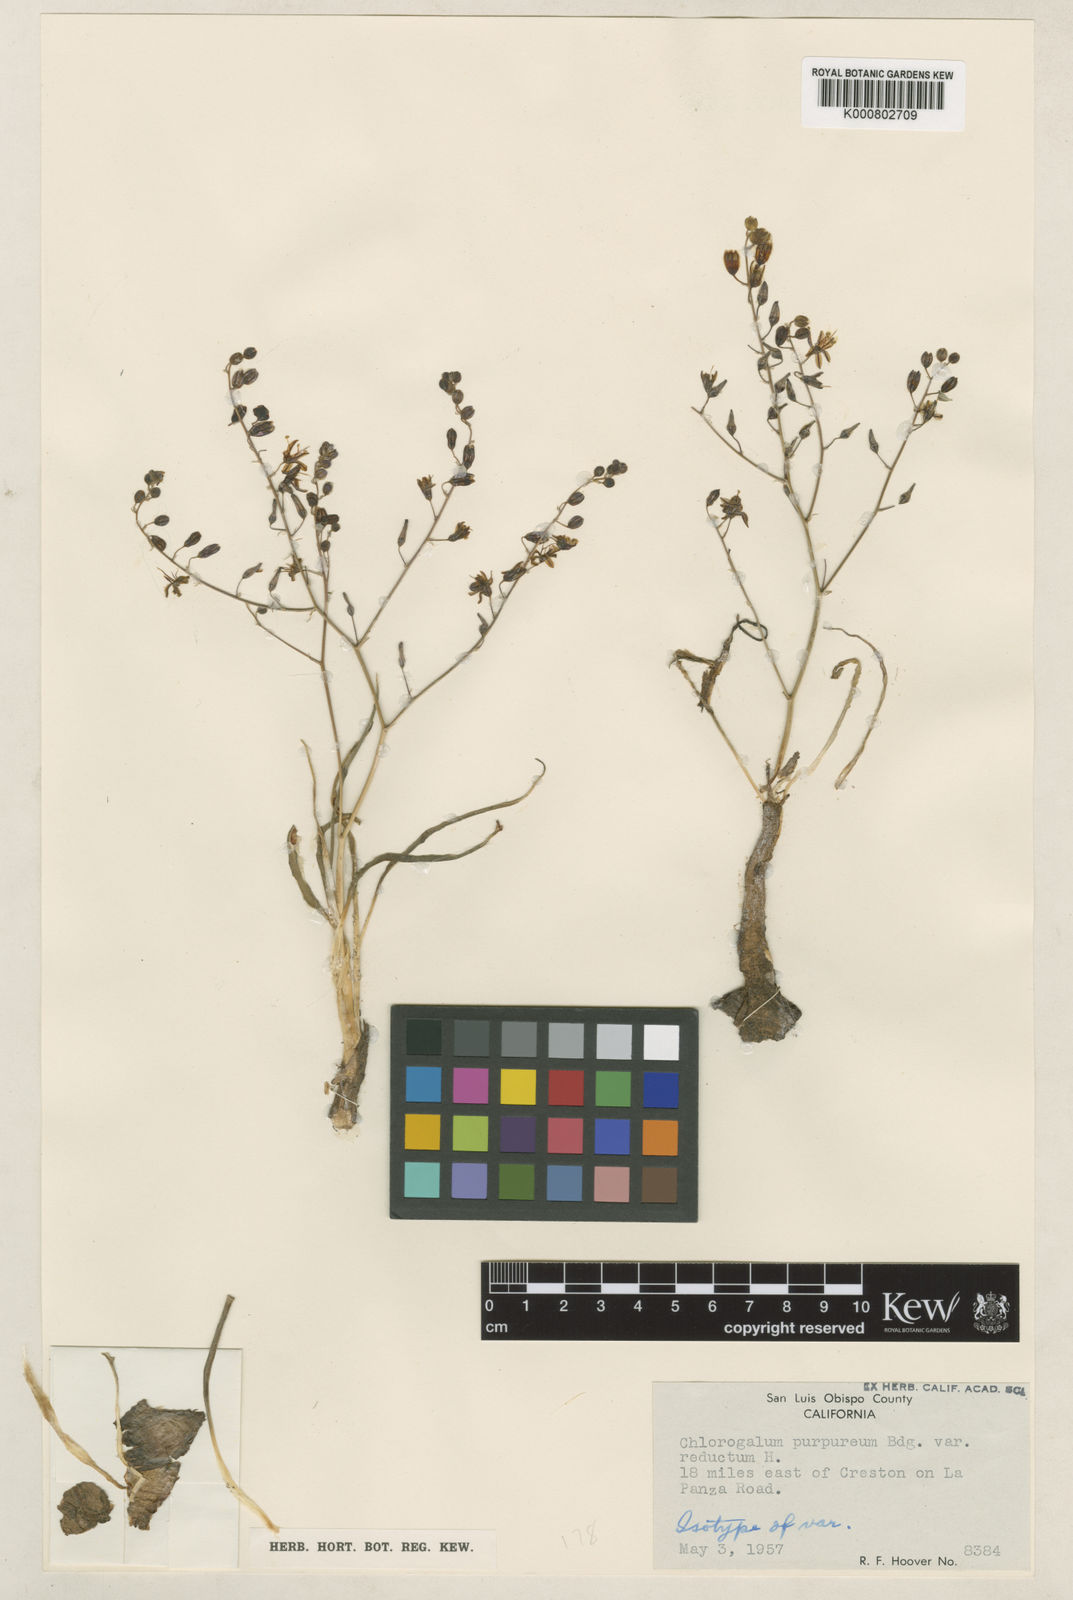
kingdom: Plantae
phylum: Tracheophyta
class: Liliopsida
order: Asparagales
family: Asparagaceae
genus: Hooveria
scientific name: Hooveria purpurea
